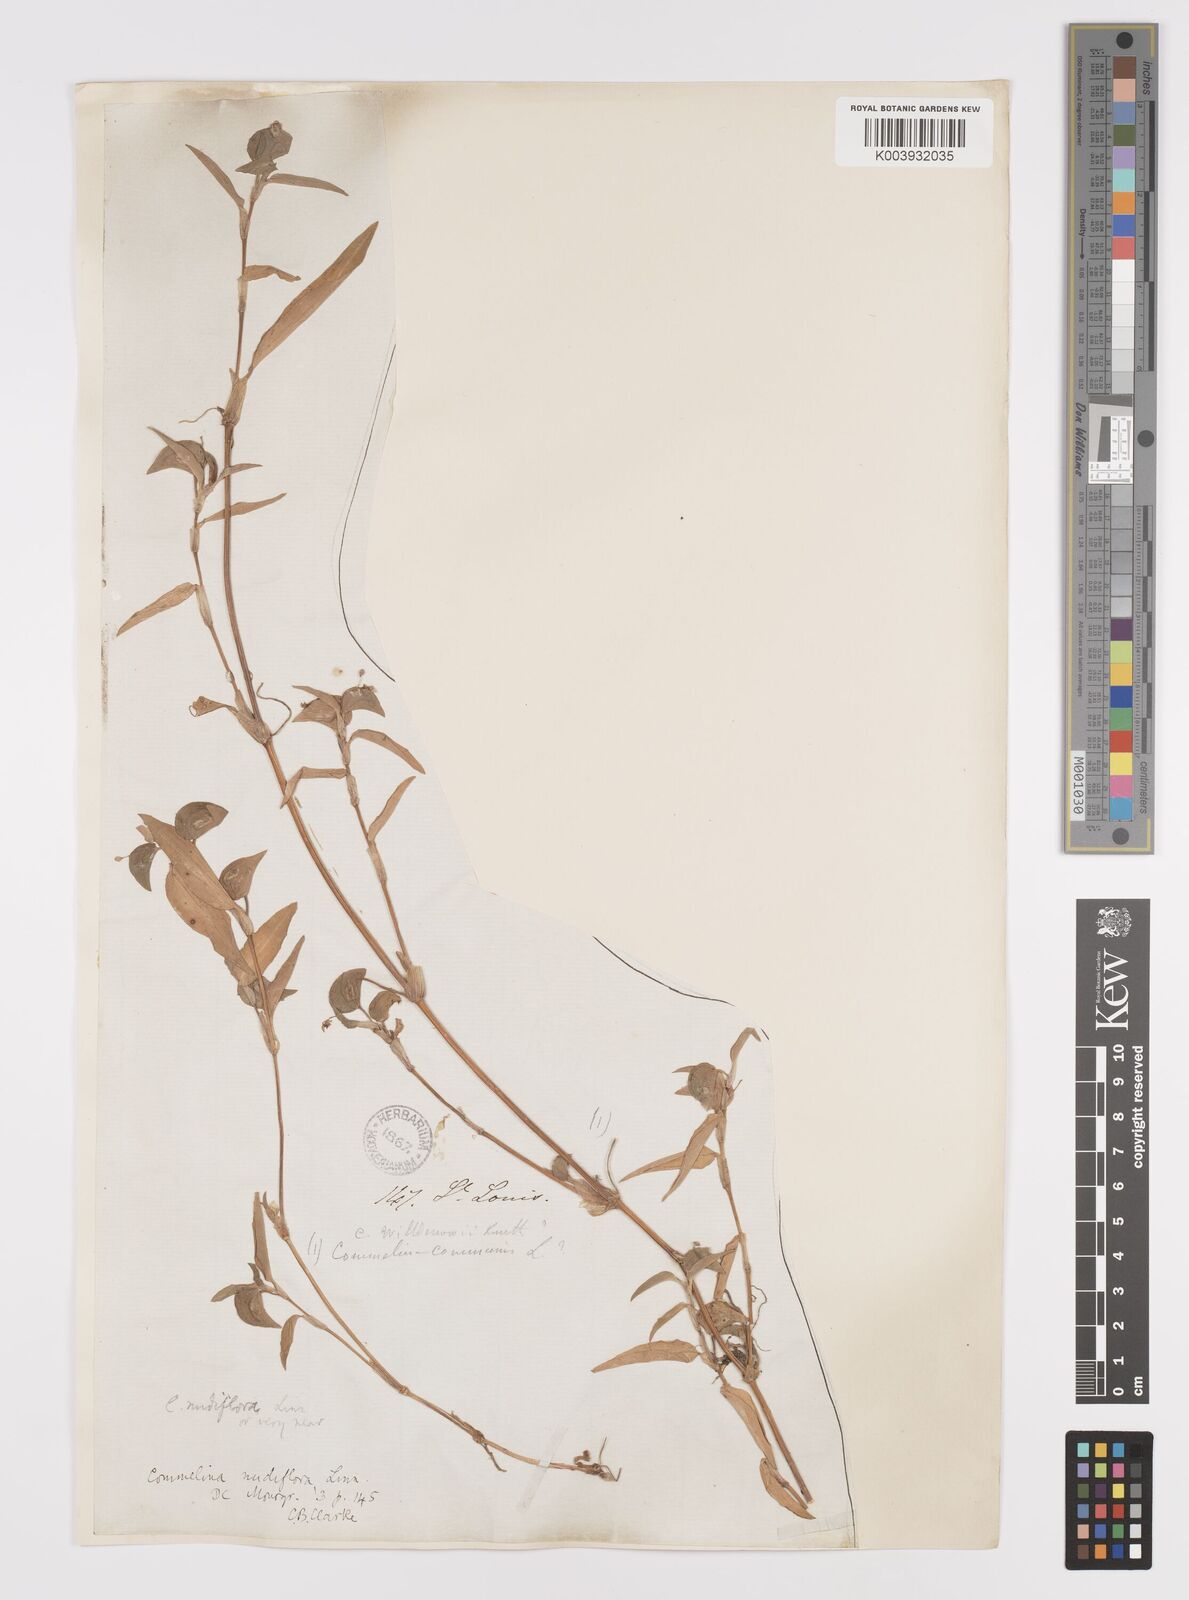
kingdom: Plantae
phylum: Tracheophyta
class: Liliopsida
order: Commelinales
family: Commelinaceae
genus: Murdannia
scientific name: Murdannia nudiflora
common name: Nakedstem dewflower
